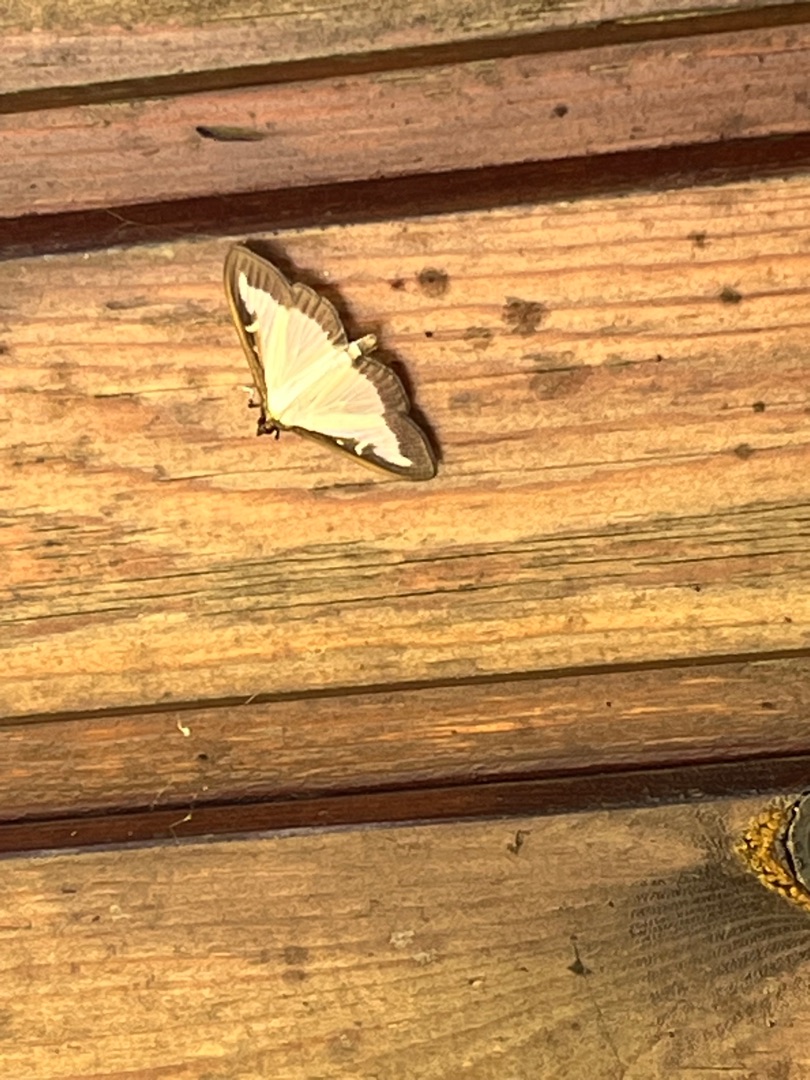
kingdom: Animalia
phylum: Arthropoda
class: Insecta
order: Lepidoptera
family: Crambidae
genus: Cydalima
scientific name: Cydalima perspectalis
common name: Buksbomhalvmøl
